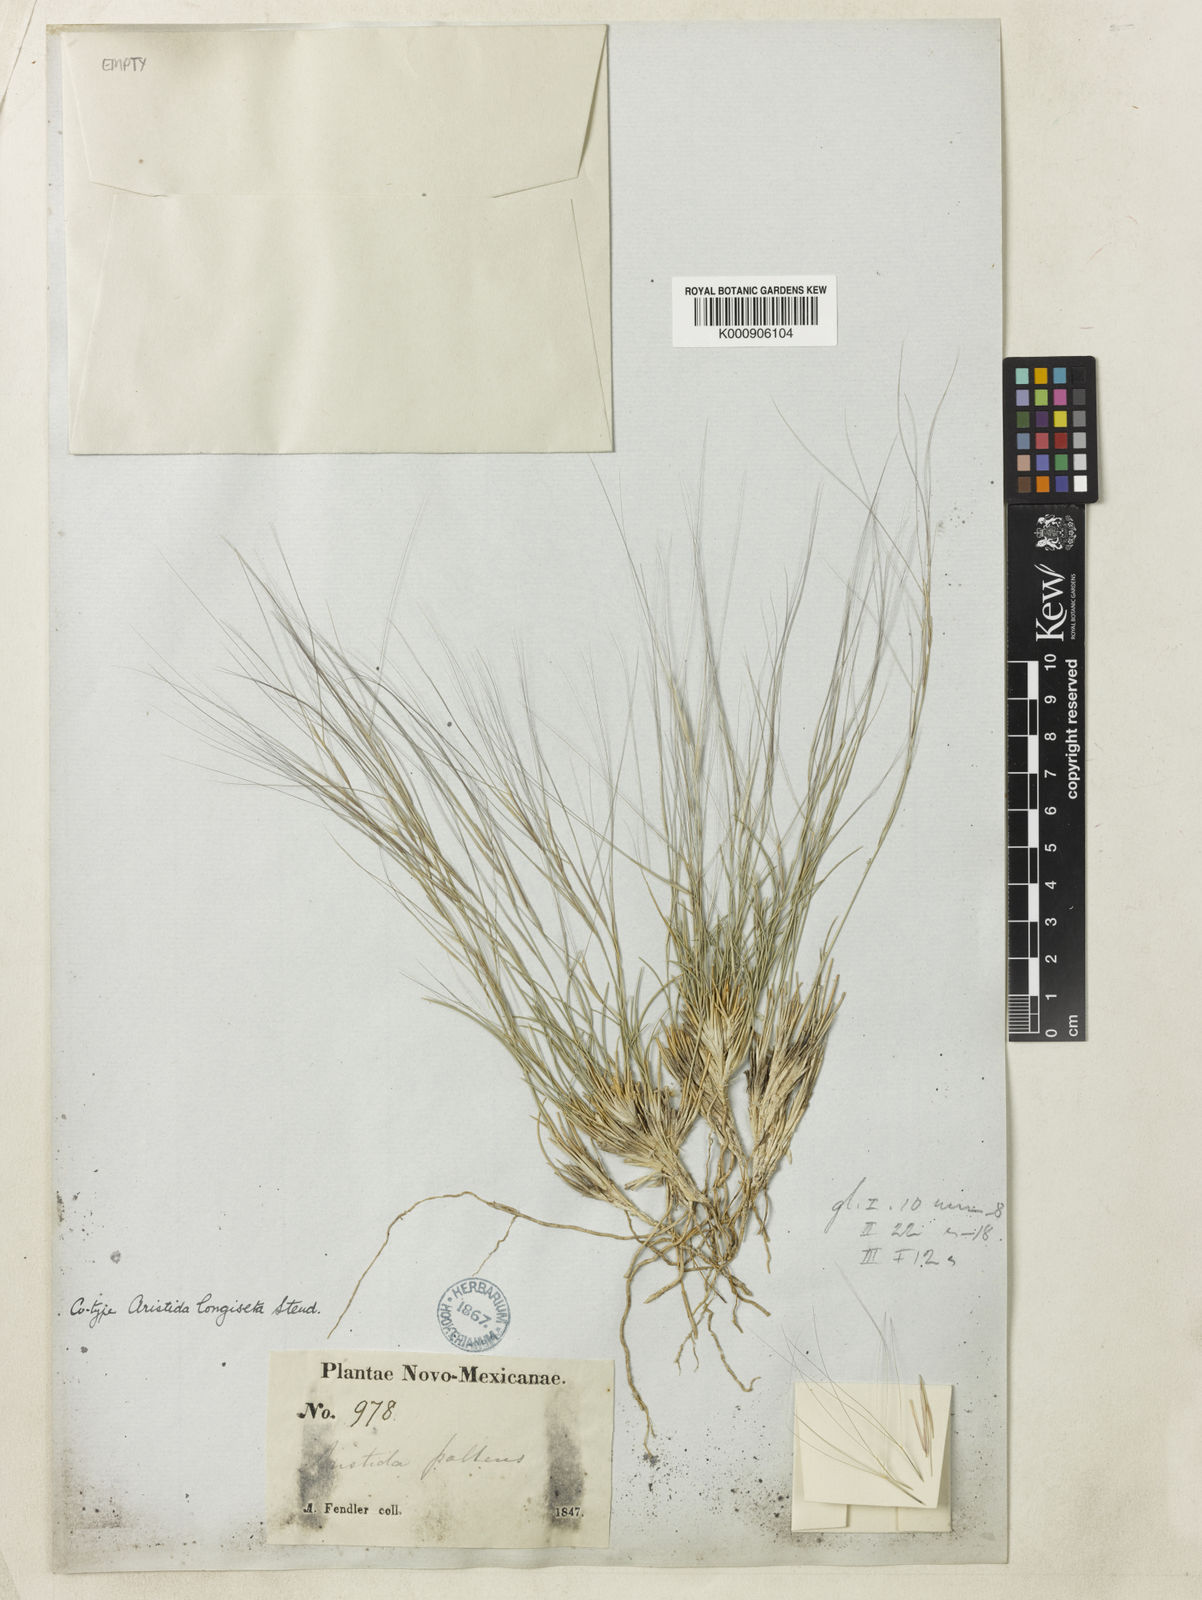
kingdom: Plantae
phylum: Tracheophyta
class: Liliopsida
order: Poales
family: Poaceae
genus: Aristida
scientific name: Aristida longiseta
